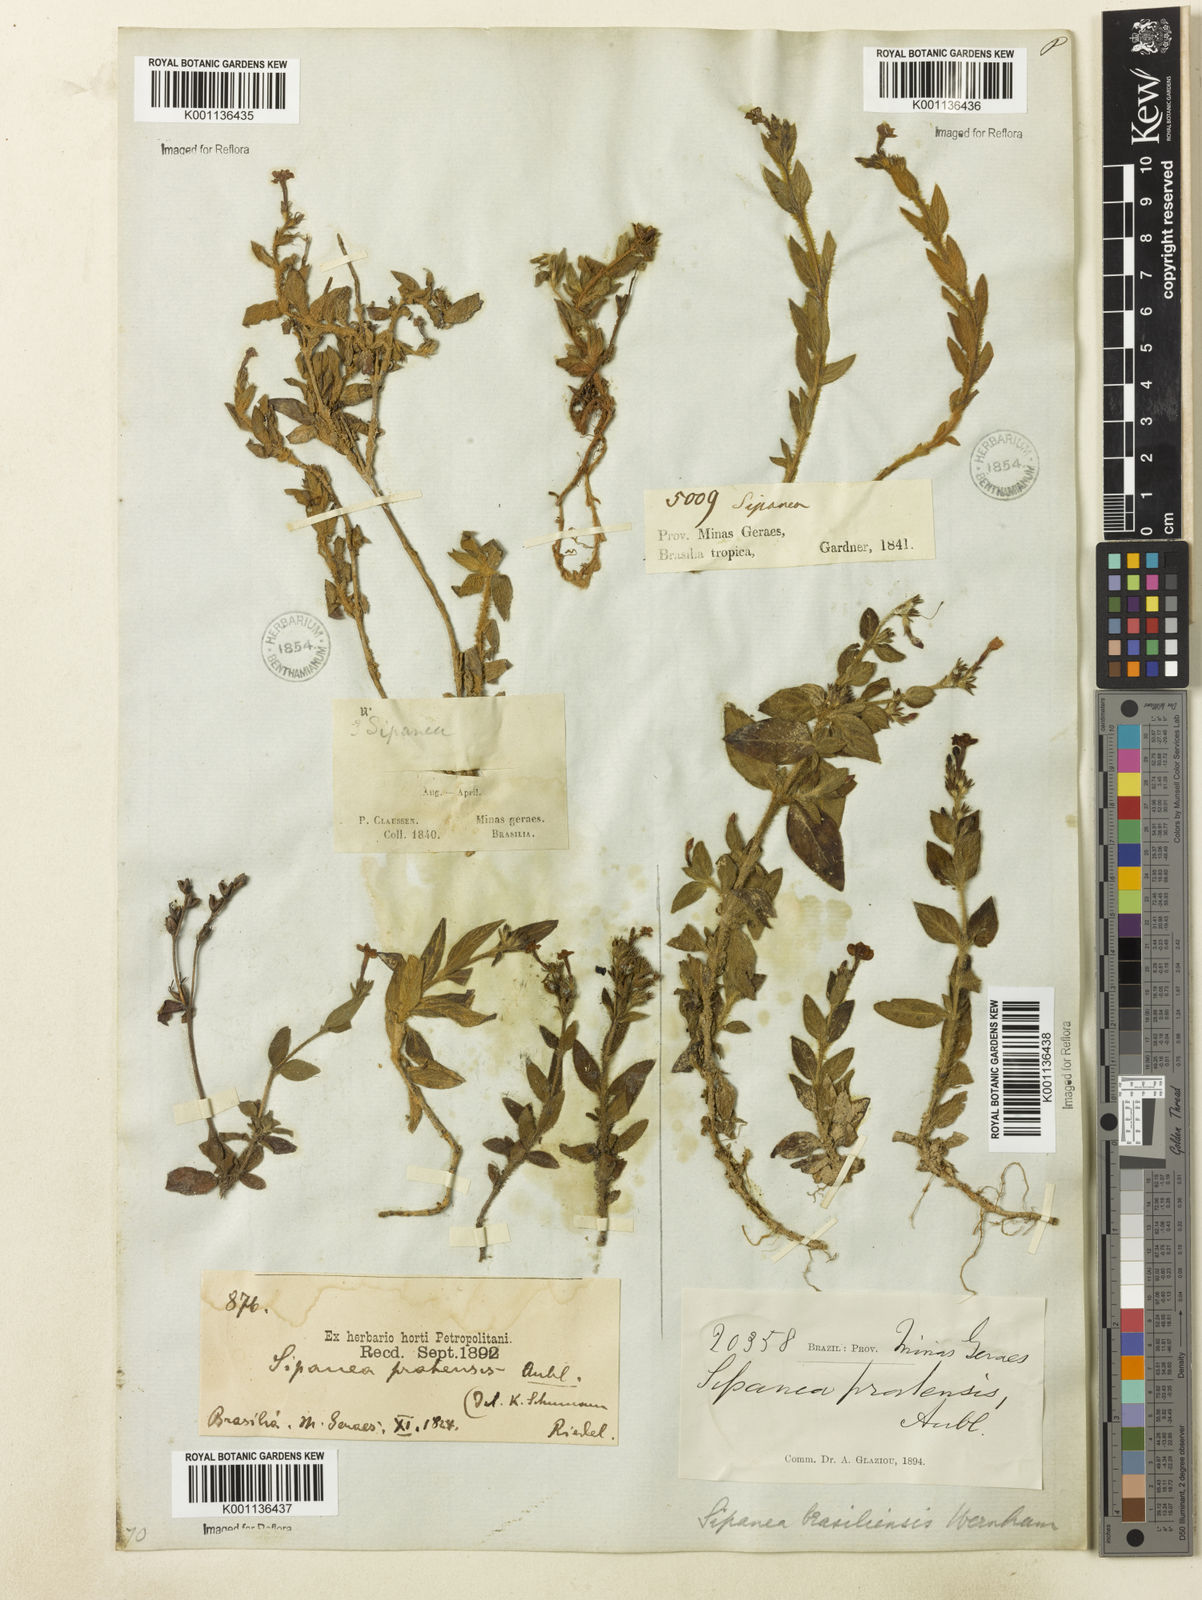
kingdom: Plantae
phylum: Tracheophyta
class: Magnoliopsida
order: Gentianales
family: Rubiaceae
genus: Sipanea
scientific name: Sipanea hispida
